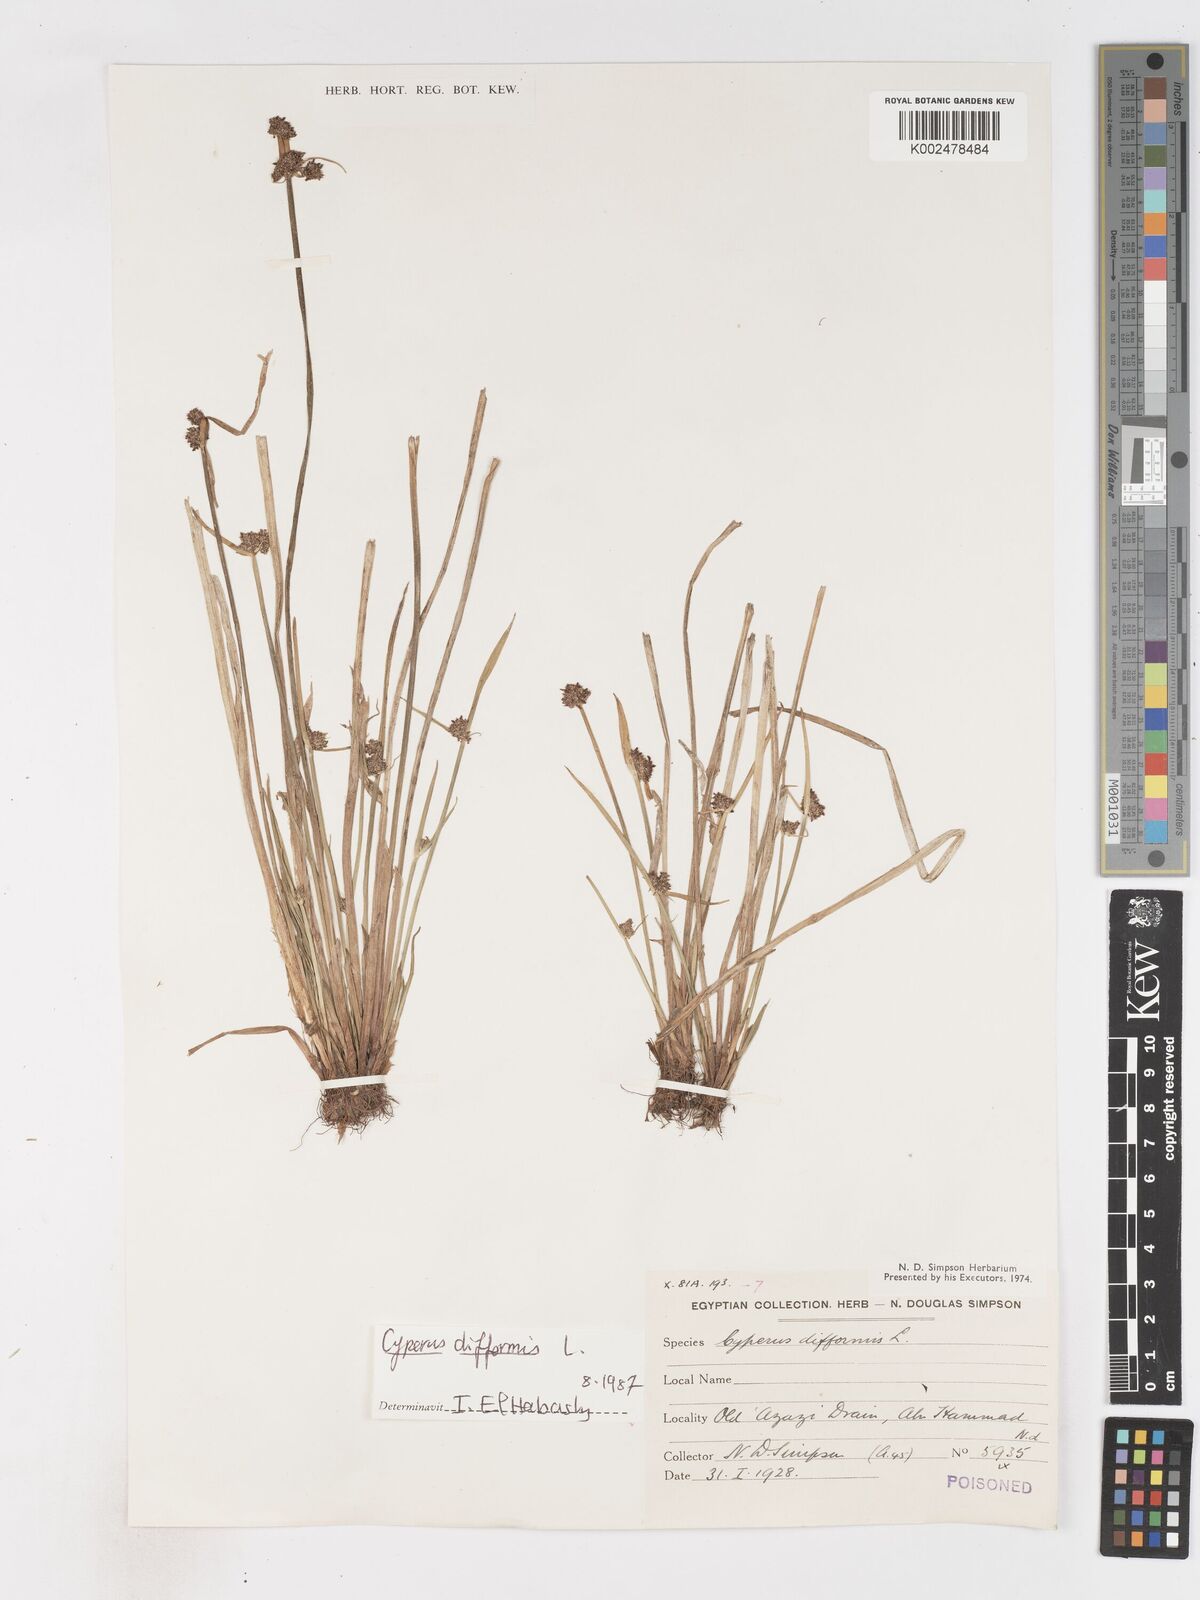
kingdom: Plantae
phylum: Tracheophyta
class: Liliopsida
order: Poales
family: Cyperaceae
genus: Cyperus
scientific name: Cyperus difformis
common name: Variable flatsedge
